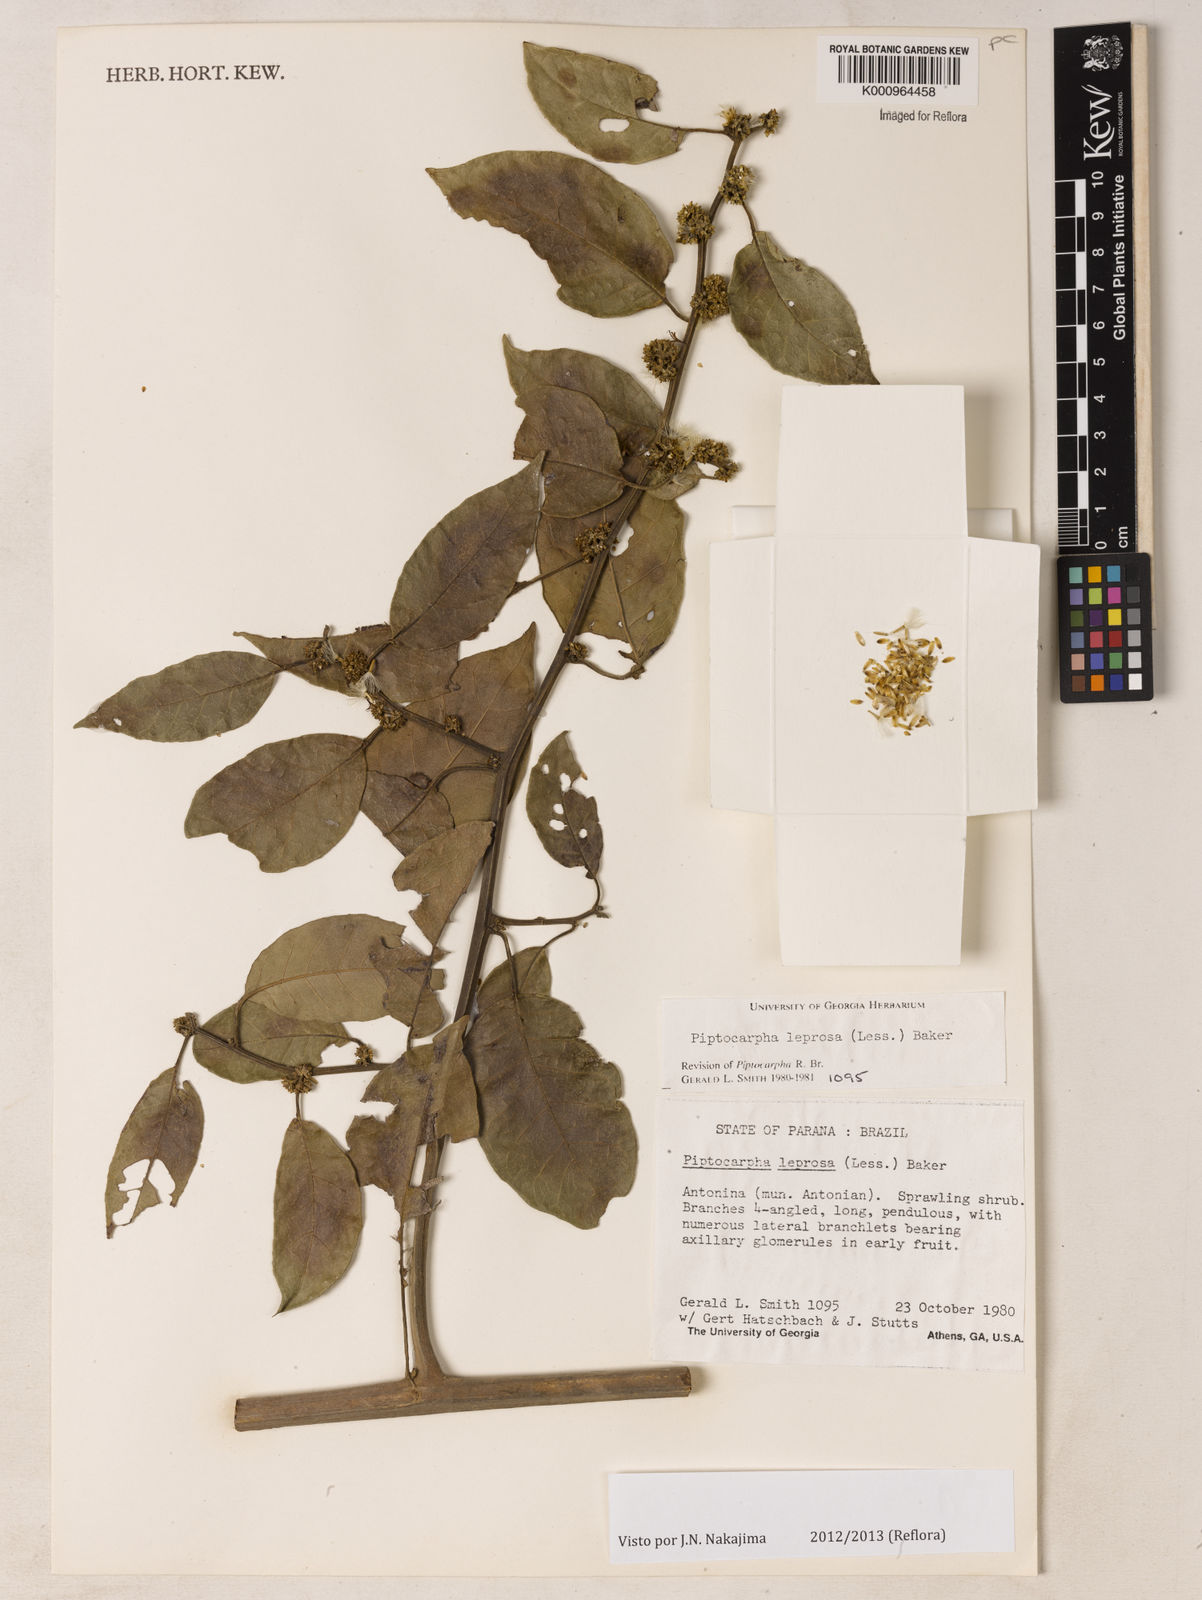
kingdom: Plantae
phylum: Tracheophyta
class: Magnoliopsida
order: Asterales
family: Asteraceae
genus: Piptocarpha
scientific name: Piptocarpha leprosa
